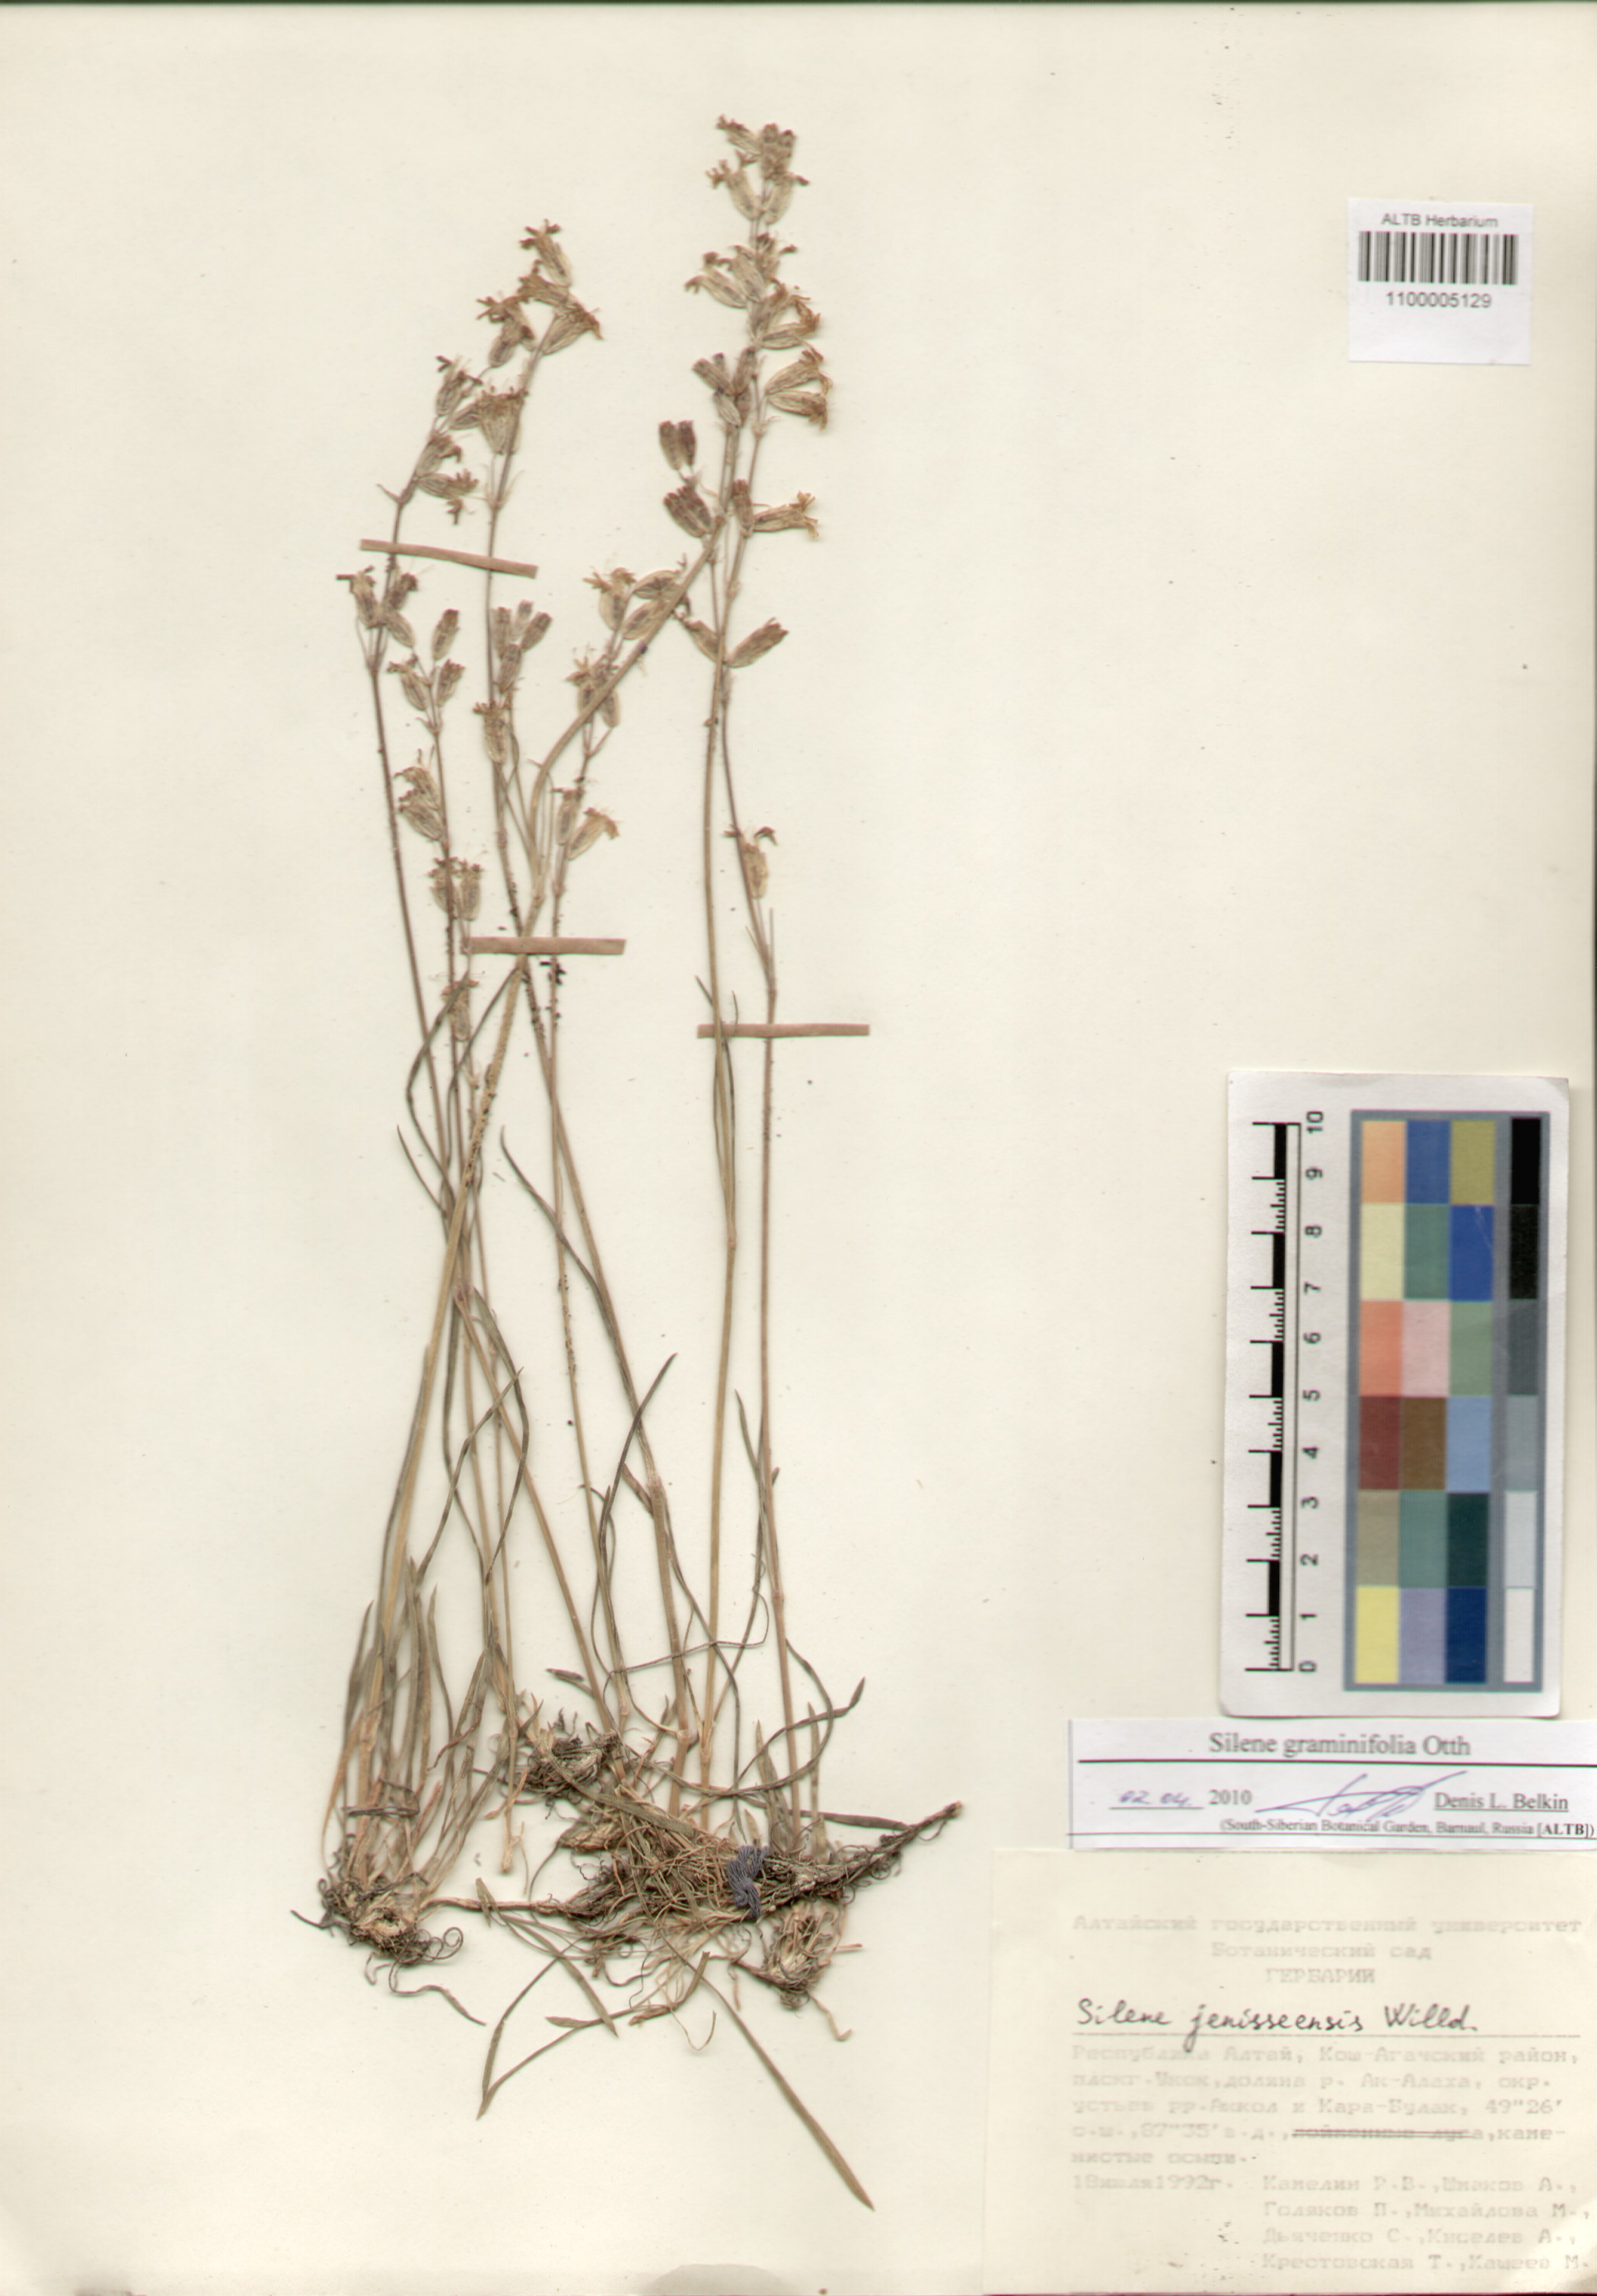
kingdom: Plantae
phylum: Tracheophyta
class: Magnoliopsida
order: Caryophyllales
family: Caryophyllaceae
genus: Silene
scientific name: Silene graminifolia
